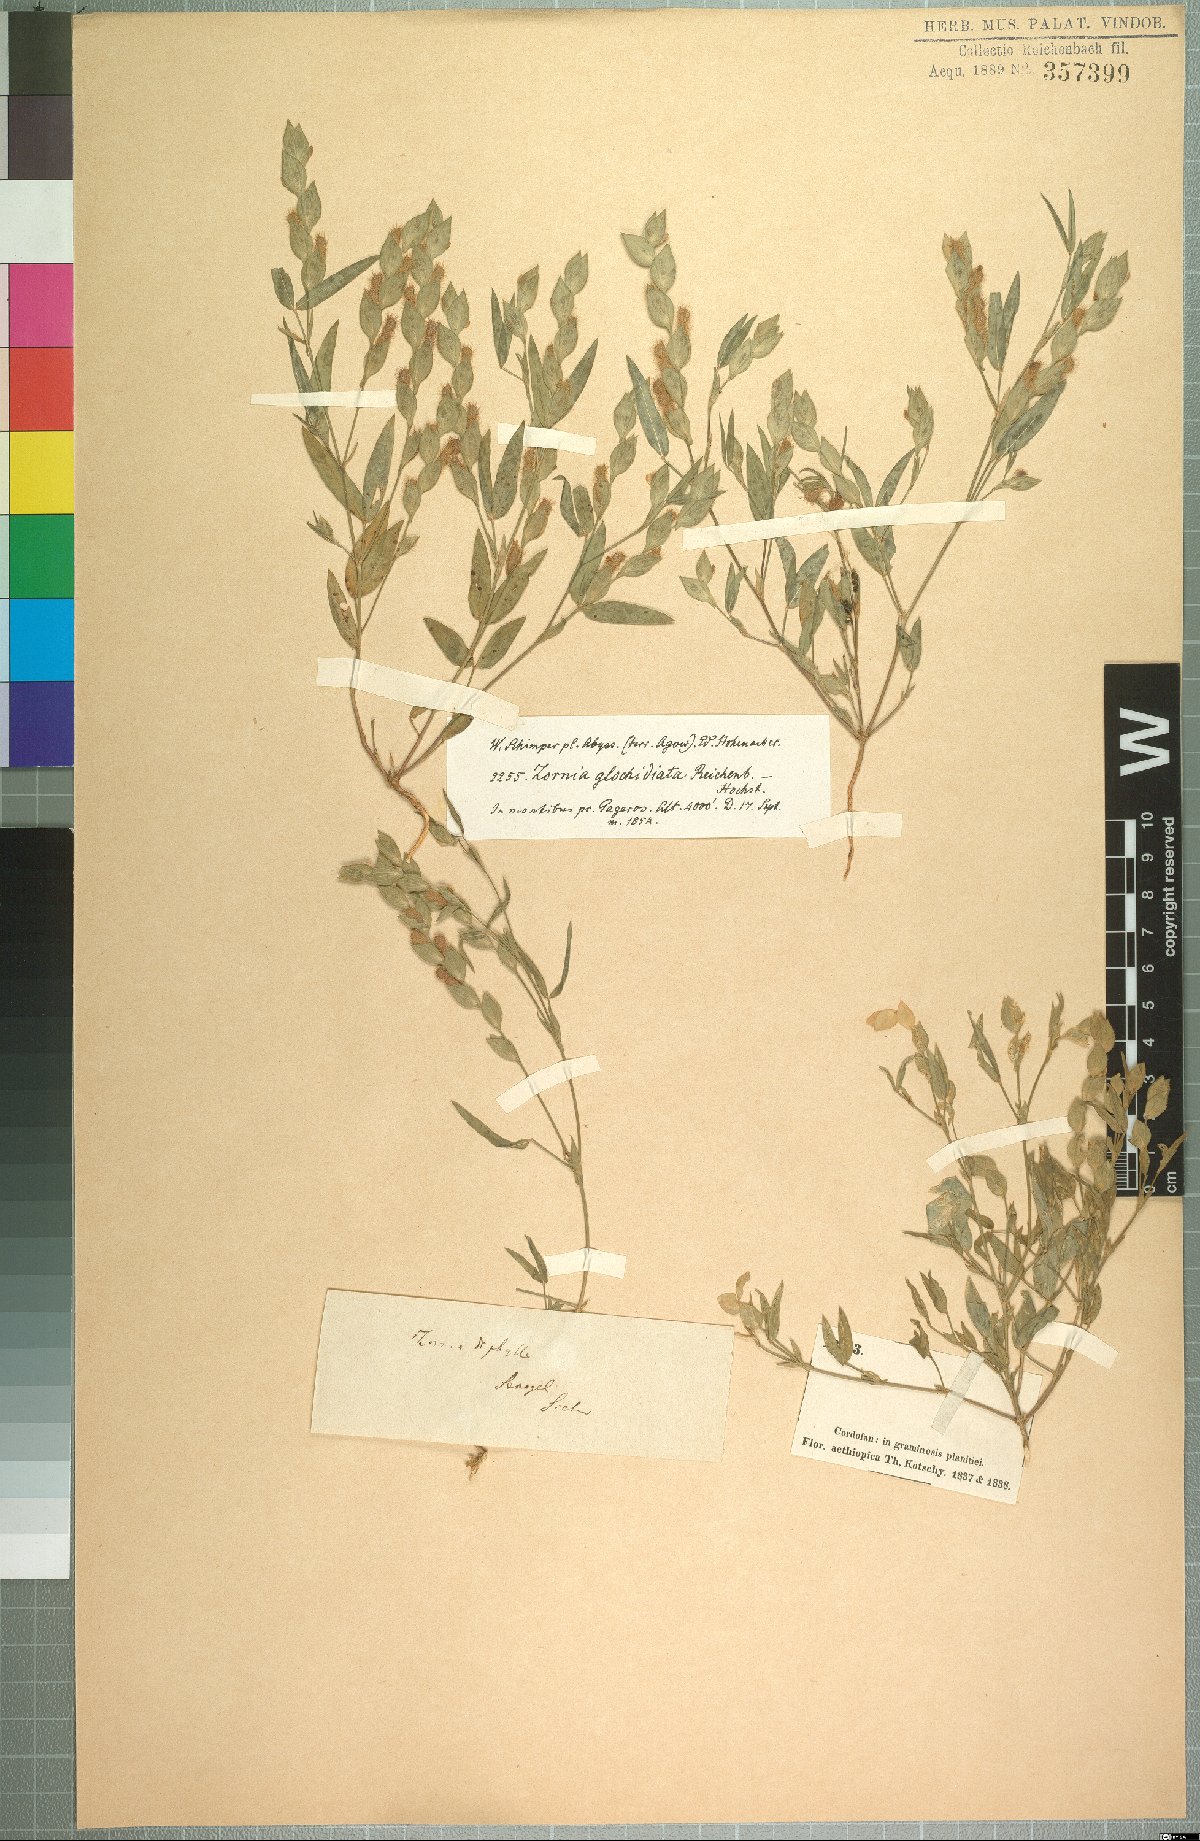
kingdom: Plantae
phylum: Tracheophyta
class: Magnoliopsida
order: Fabales
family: Fabaceae
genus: Zornia
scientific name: Zornia glochidiata
